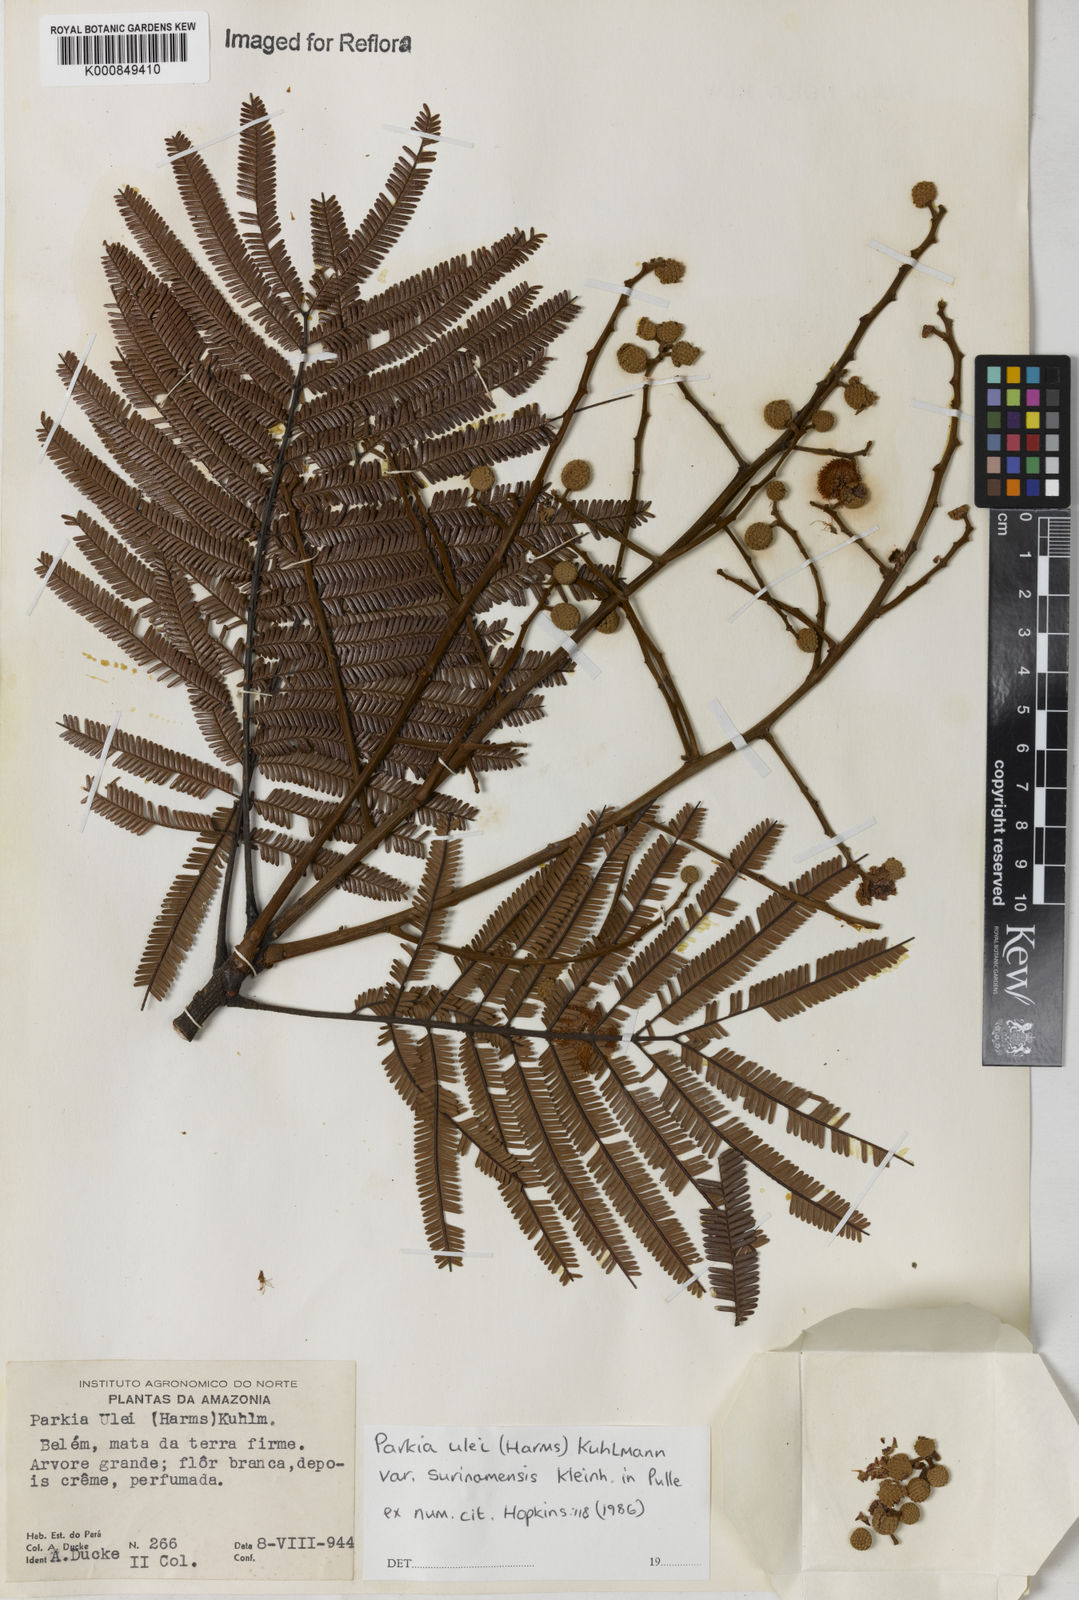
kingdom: Plantae
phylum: Tracheophyta
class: Magnoliopsida
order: Fabales
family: Fabaceae
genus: Parkia
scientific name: Parkia ulei
